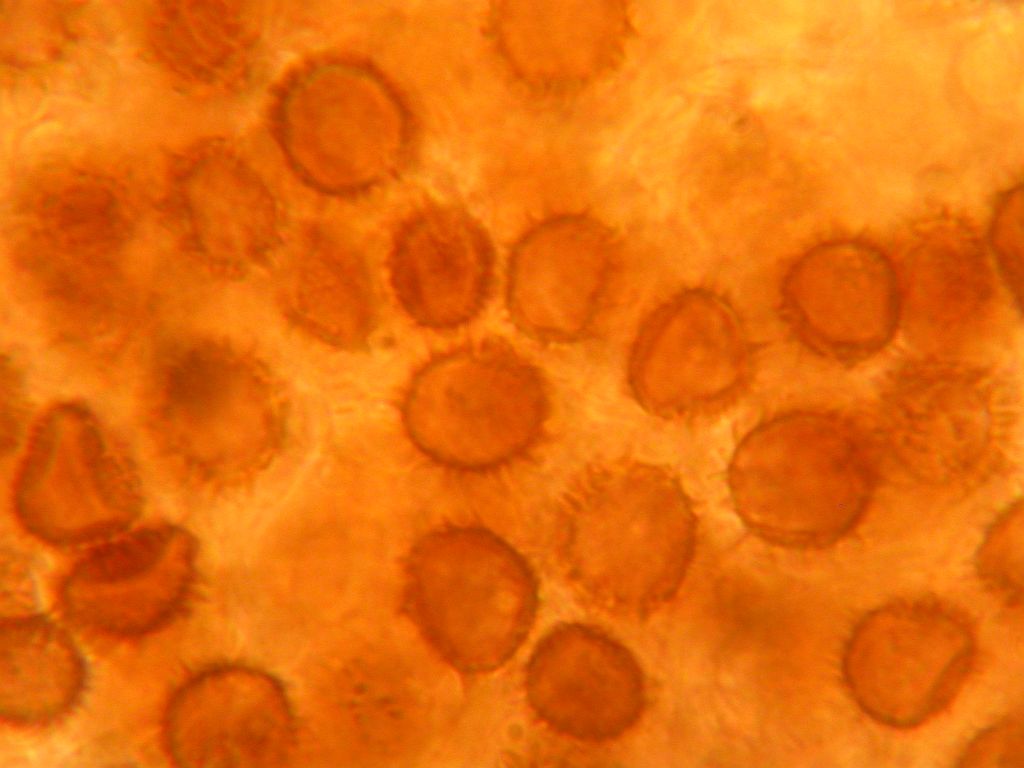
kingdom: Fungi
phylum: Basidiomycota
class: Agaricomycetes
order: Boletales
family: Sclerodermataceae
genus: Scleroderma
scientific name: Scleroderma cepa
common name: rødbrun bruskbold
